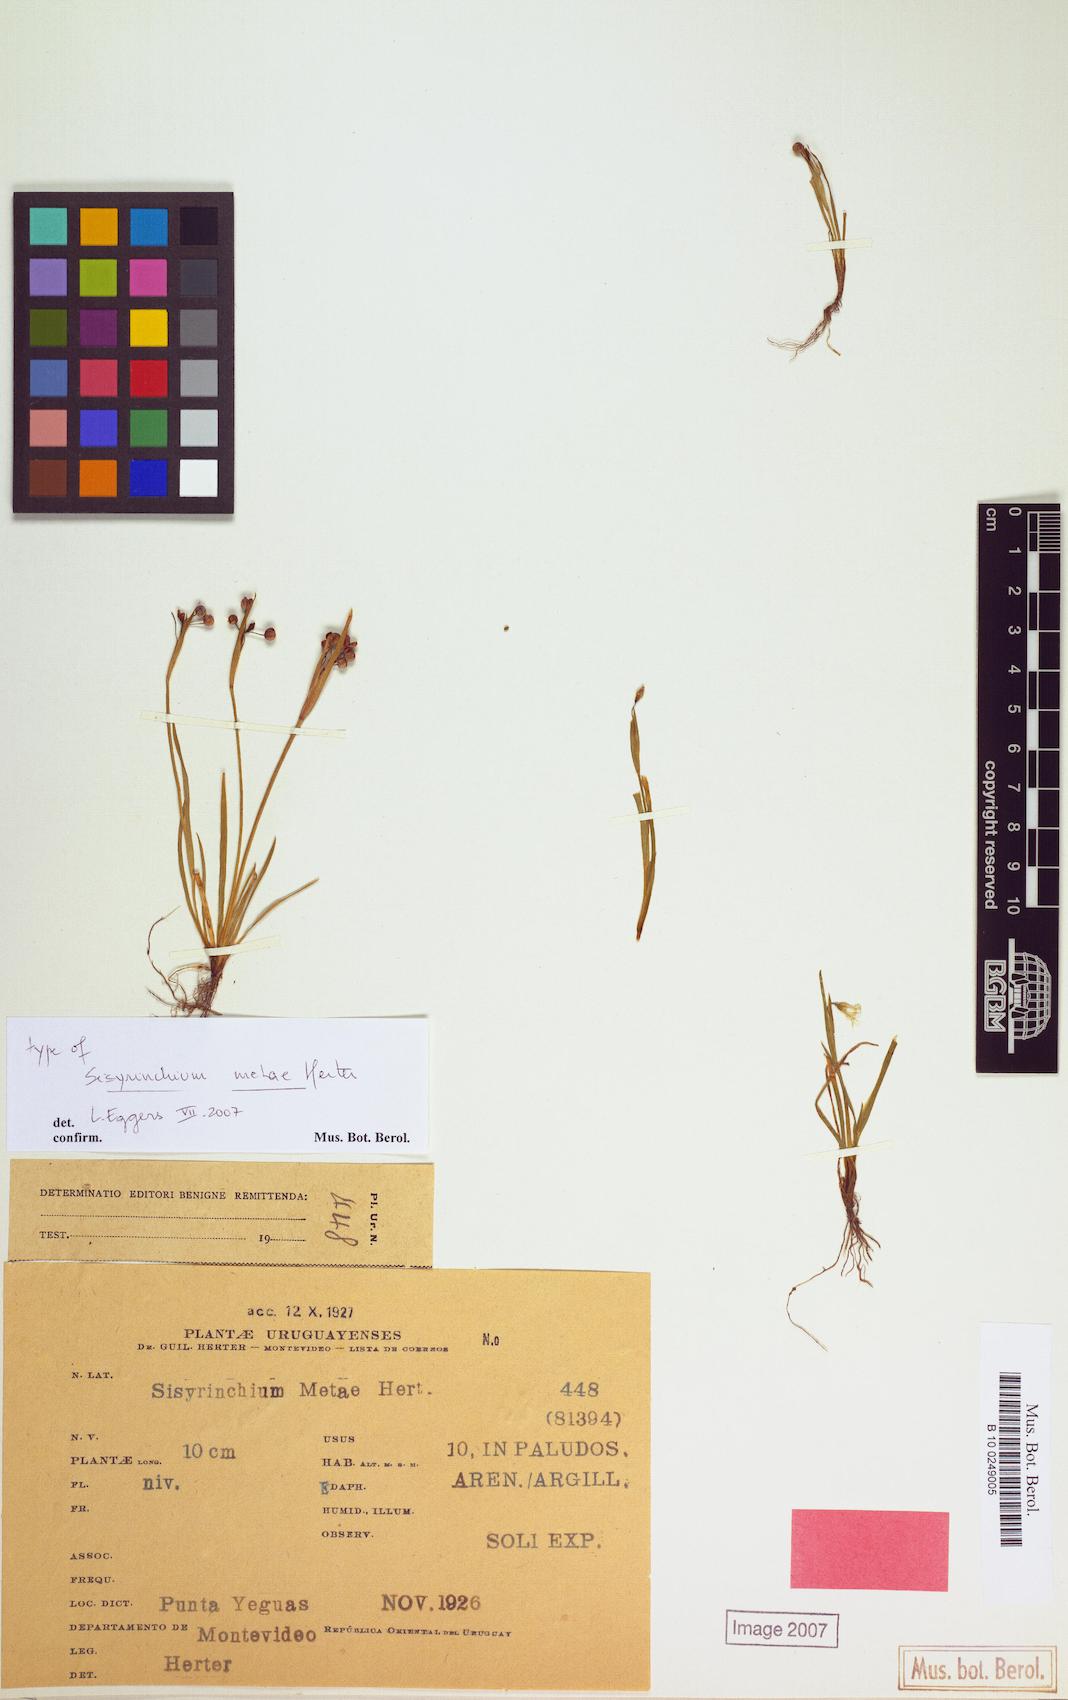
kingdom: Plantae
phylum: Tracheophyta
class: Liliopsida
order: Asparagales
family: Iridaceae
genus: Sisyrinchium
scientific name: Sisyrinchium laxum
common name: Veined yellow-eyed-grass
